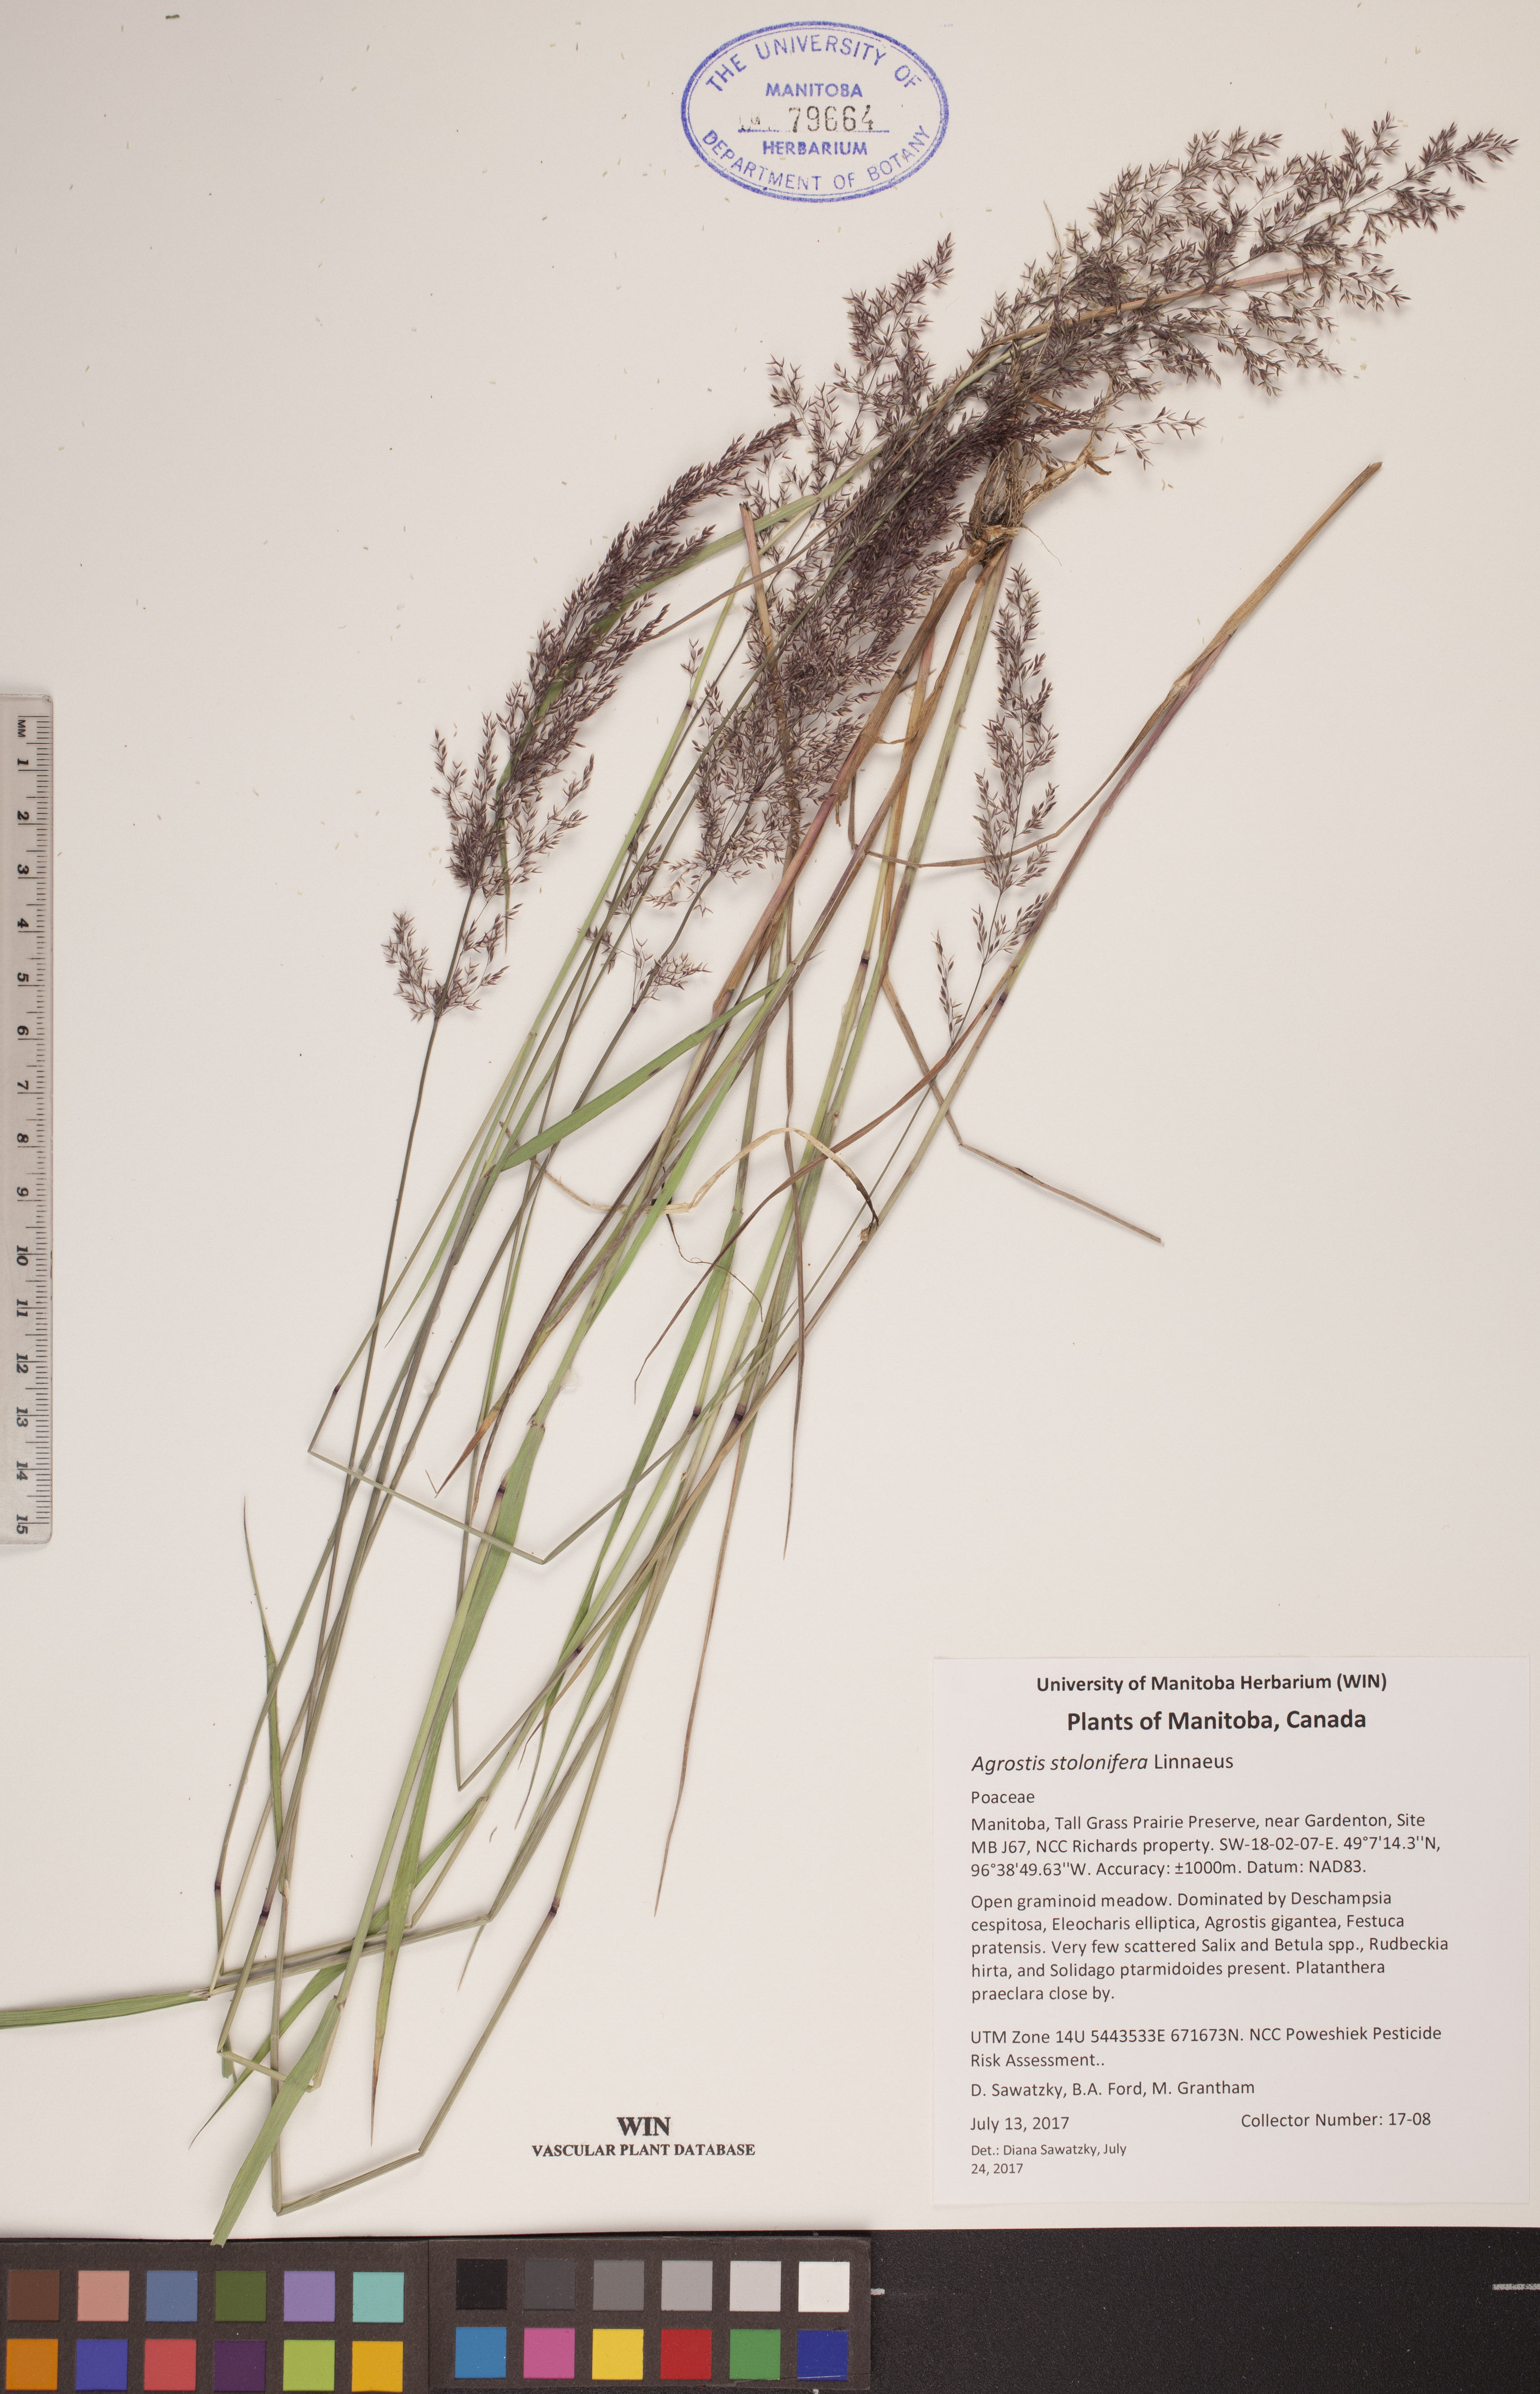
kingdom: Plantae
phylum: Tracheophyta
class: Liliopsida
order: Poales
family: Poaceae
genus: Agrostis
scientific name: Agrostis stolonifera
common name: Creeping bentgrass
